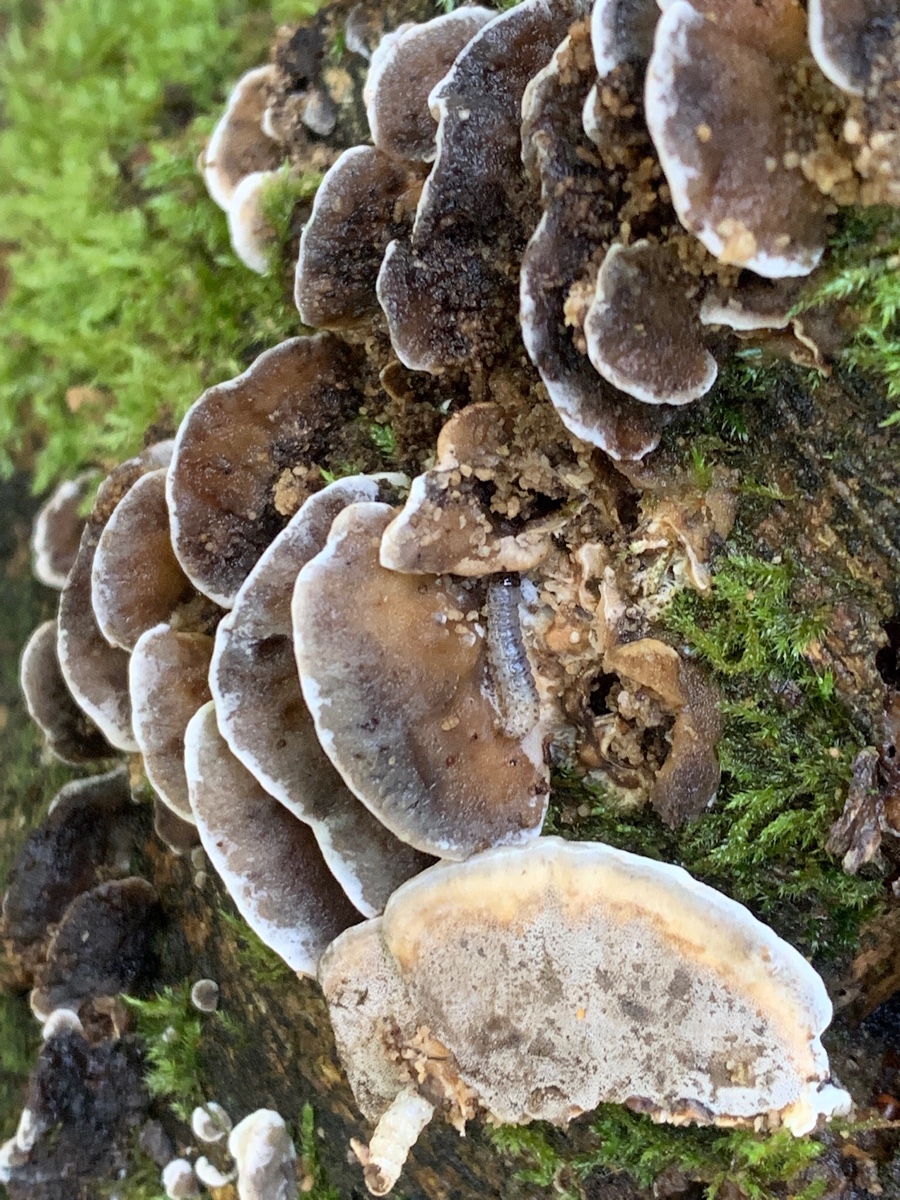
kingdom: Fungi
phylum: Basidiomycota
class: Agaricomycetes
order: Polyporales
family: Phanerochaetaceae
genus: Bjerkandera
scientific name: Bjerkandera adusta
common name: sveden sodporesvamp
